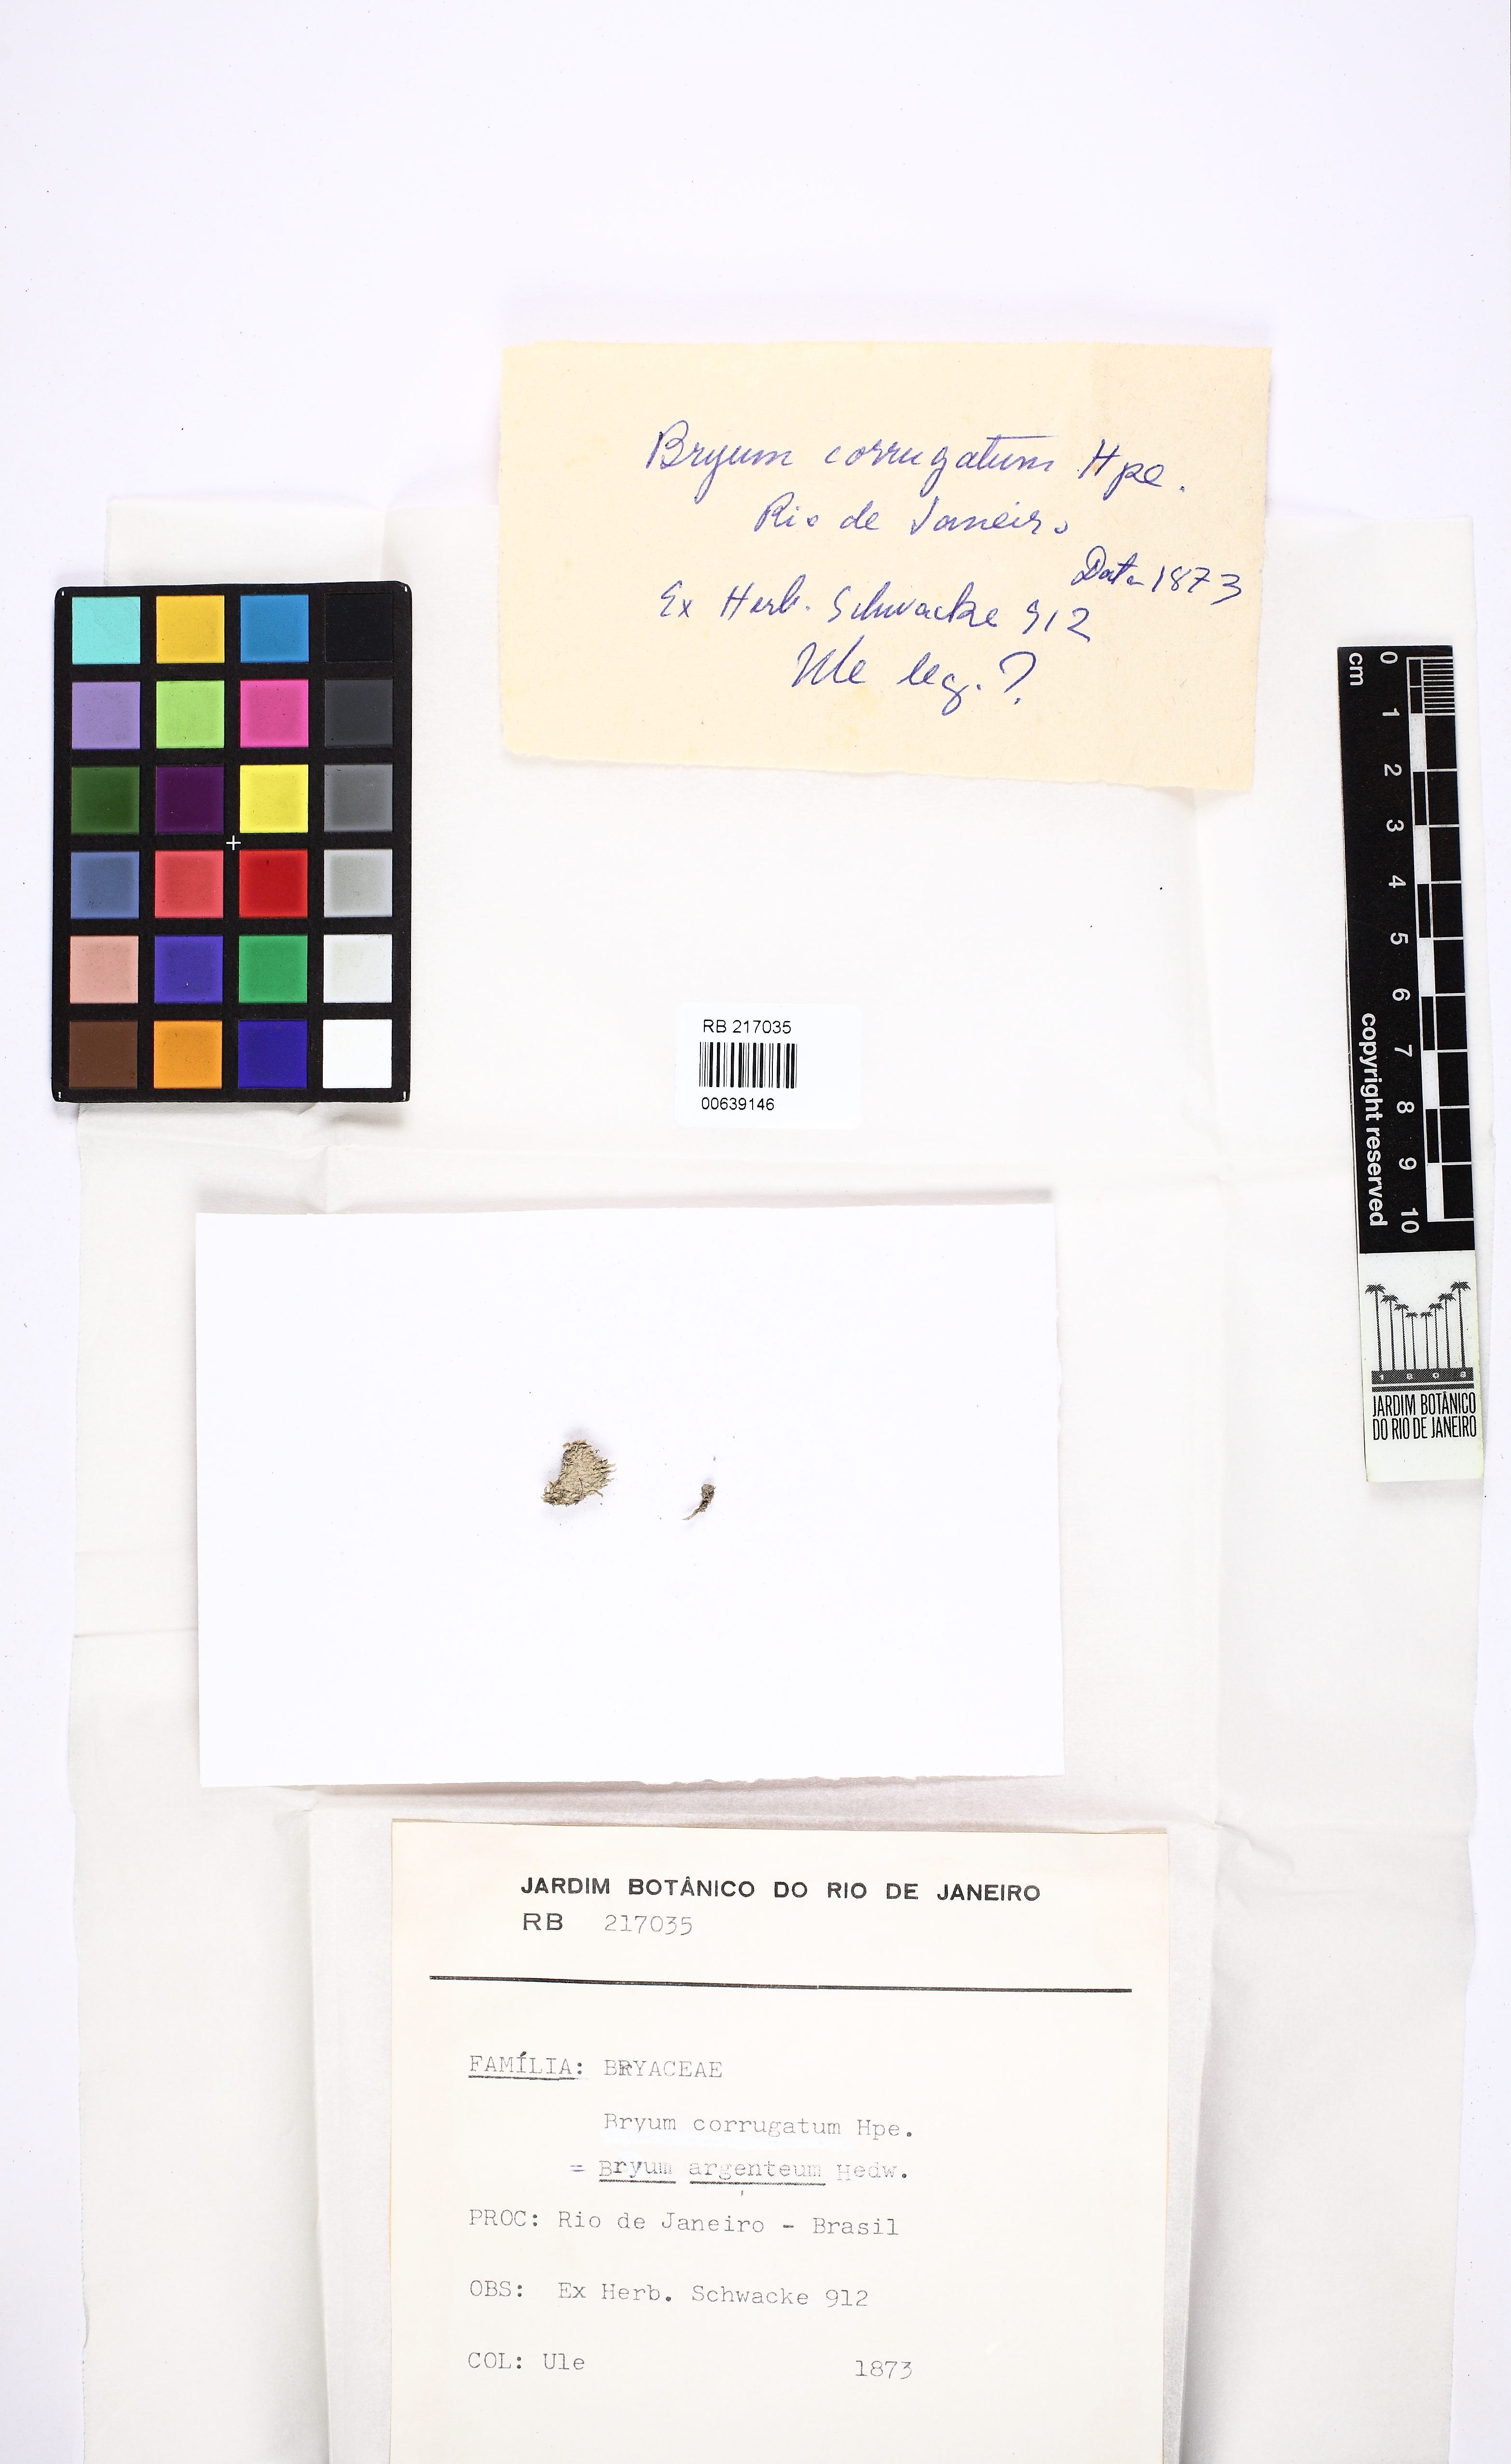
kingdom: Plantae
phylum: Bryophyta
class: Bryopsida
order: Bryales
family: Bryaceae
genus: Bryum
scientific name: Bryum argenteum
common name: Silver-moss
